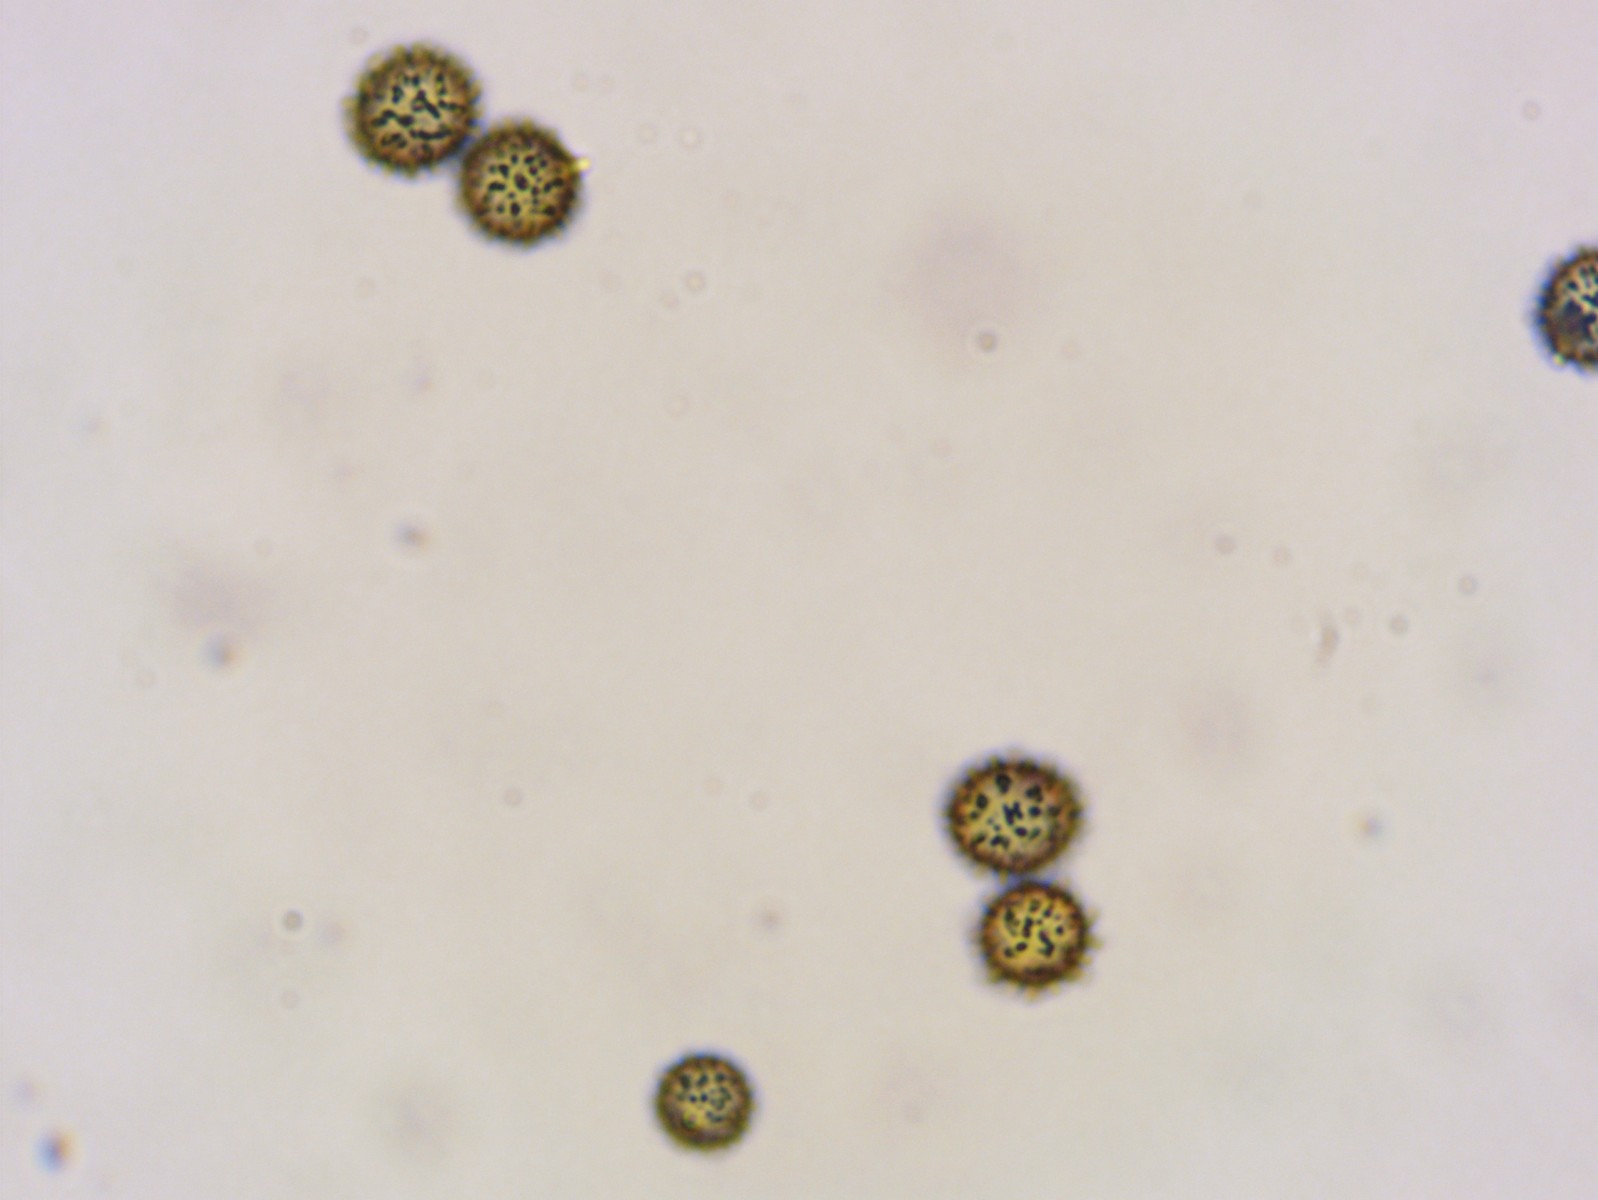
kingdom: Fungi
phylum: Basidiomycota
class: Agaricomycetes
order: Russulales
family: Russulaceae
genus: Russula
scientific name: Russula rutila
